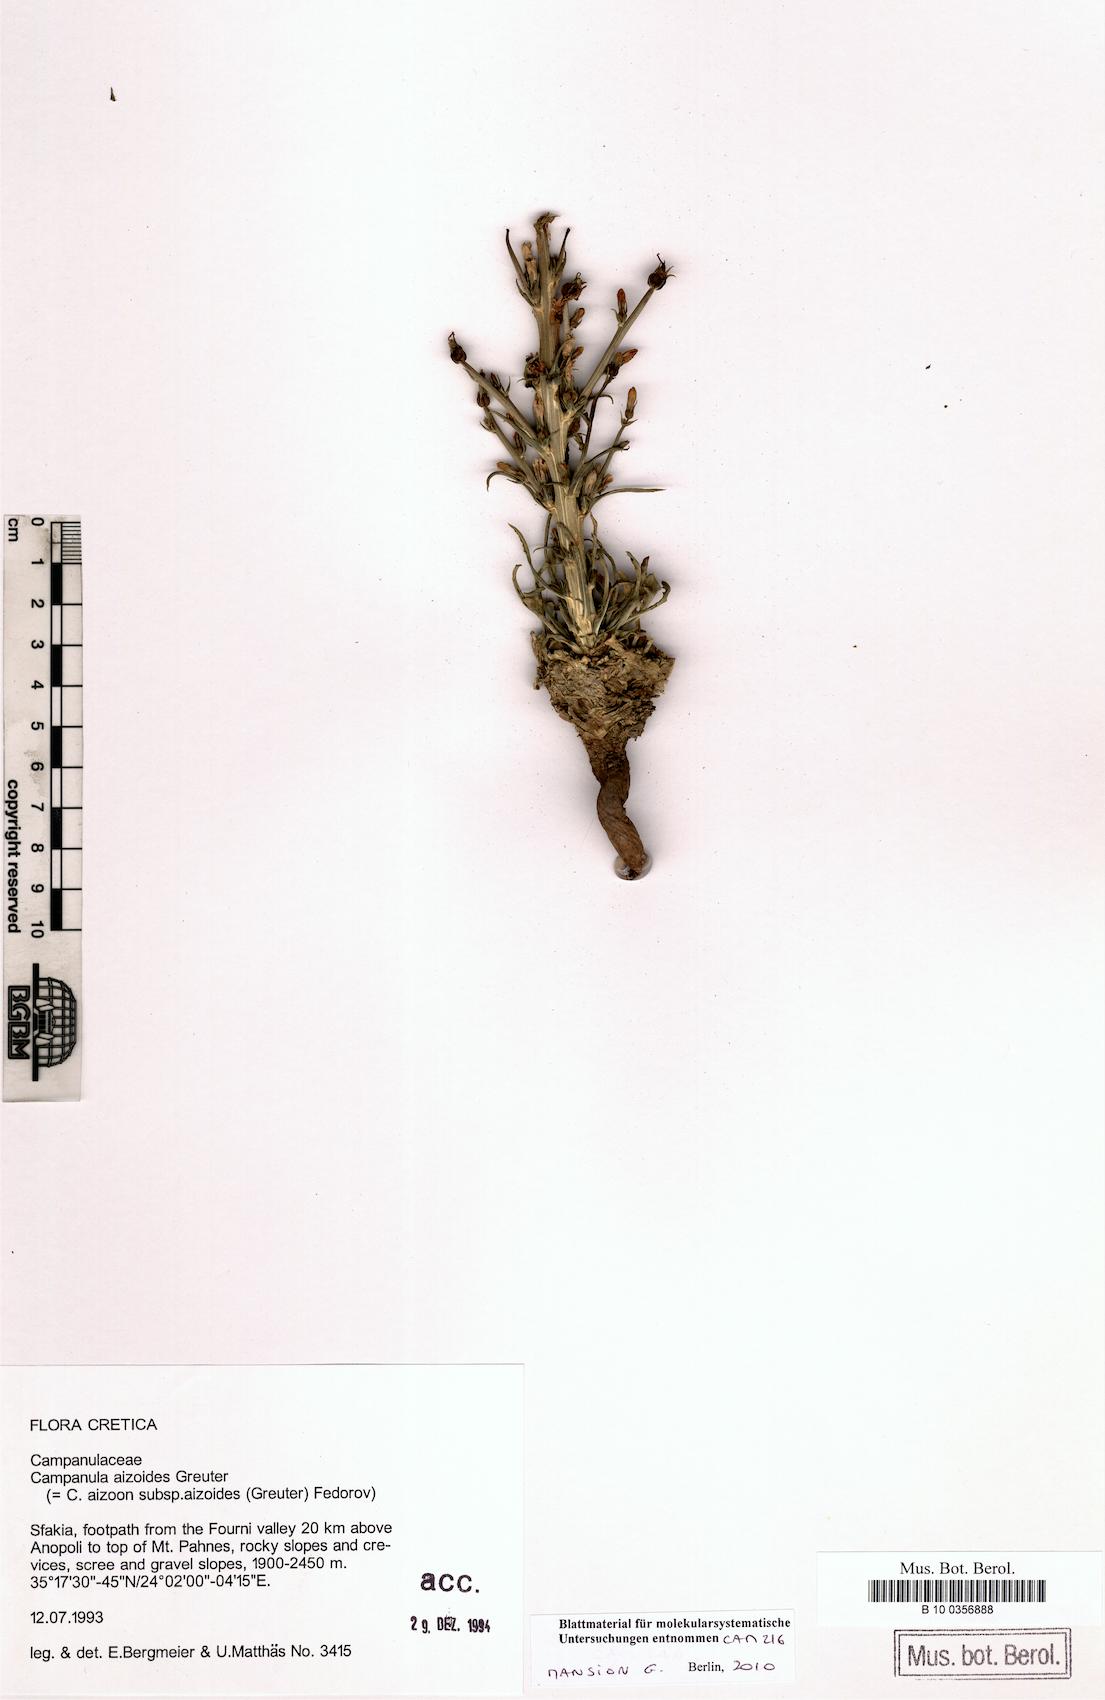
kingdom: Plantae
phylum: Tracheophyta
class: Magnoliopsida
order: Asterales
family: Campanulaceae
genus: Campanula
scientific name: Campanula aizoides
